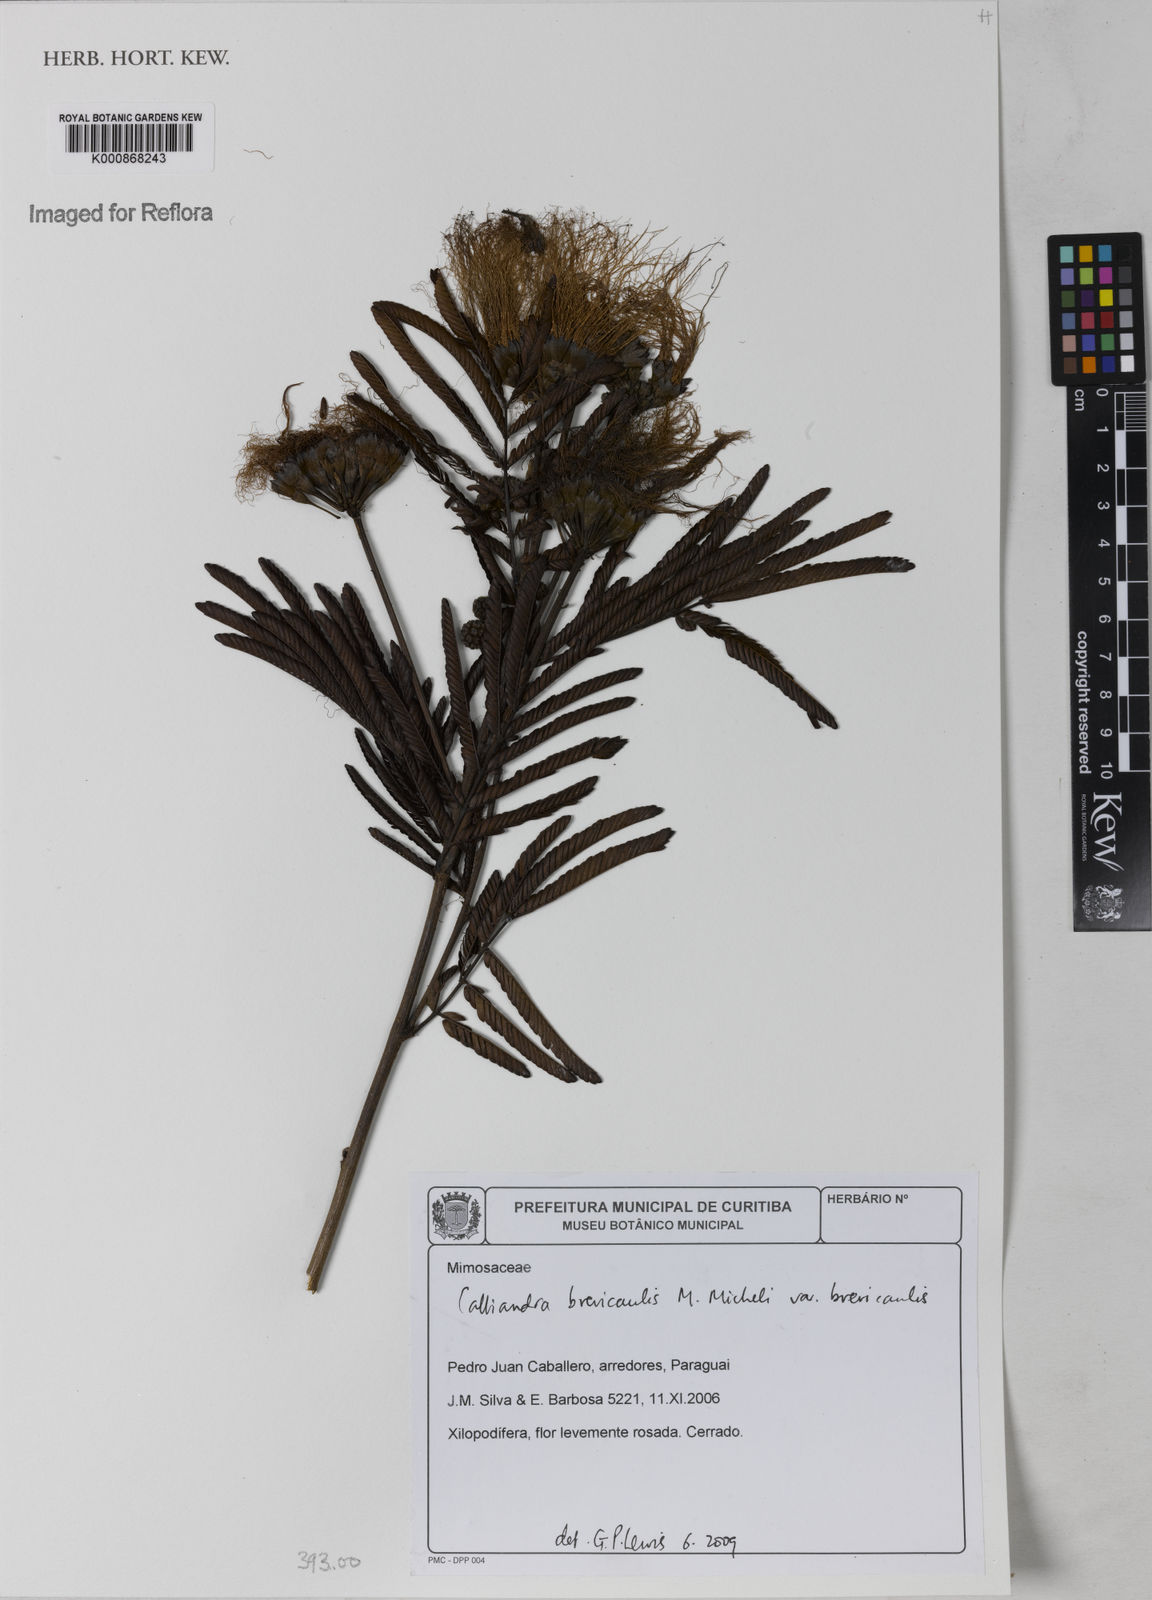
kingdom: Plantae
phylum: Tracheophyta
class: Magnoliopsida
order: Fabales
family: Fabaceae
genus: Calliandra
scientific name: Calliandra brevicaulis
